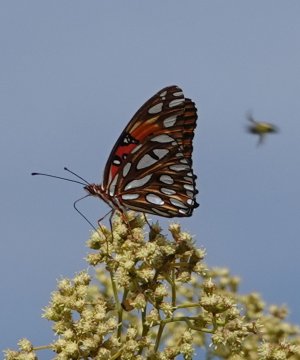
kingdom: Animalia
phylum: Arthropoda
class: Insecta
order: Lepidoptera
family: Nymphalidae
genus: Dione
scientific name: Dione vanillae
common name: Gulf Fritillary
